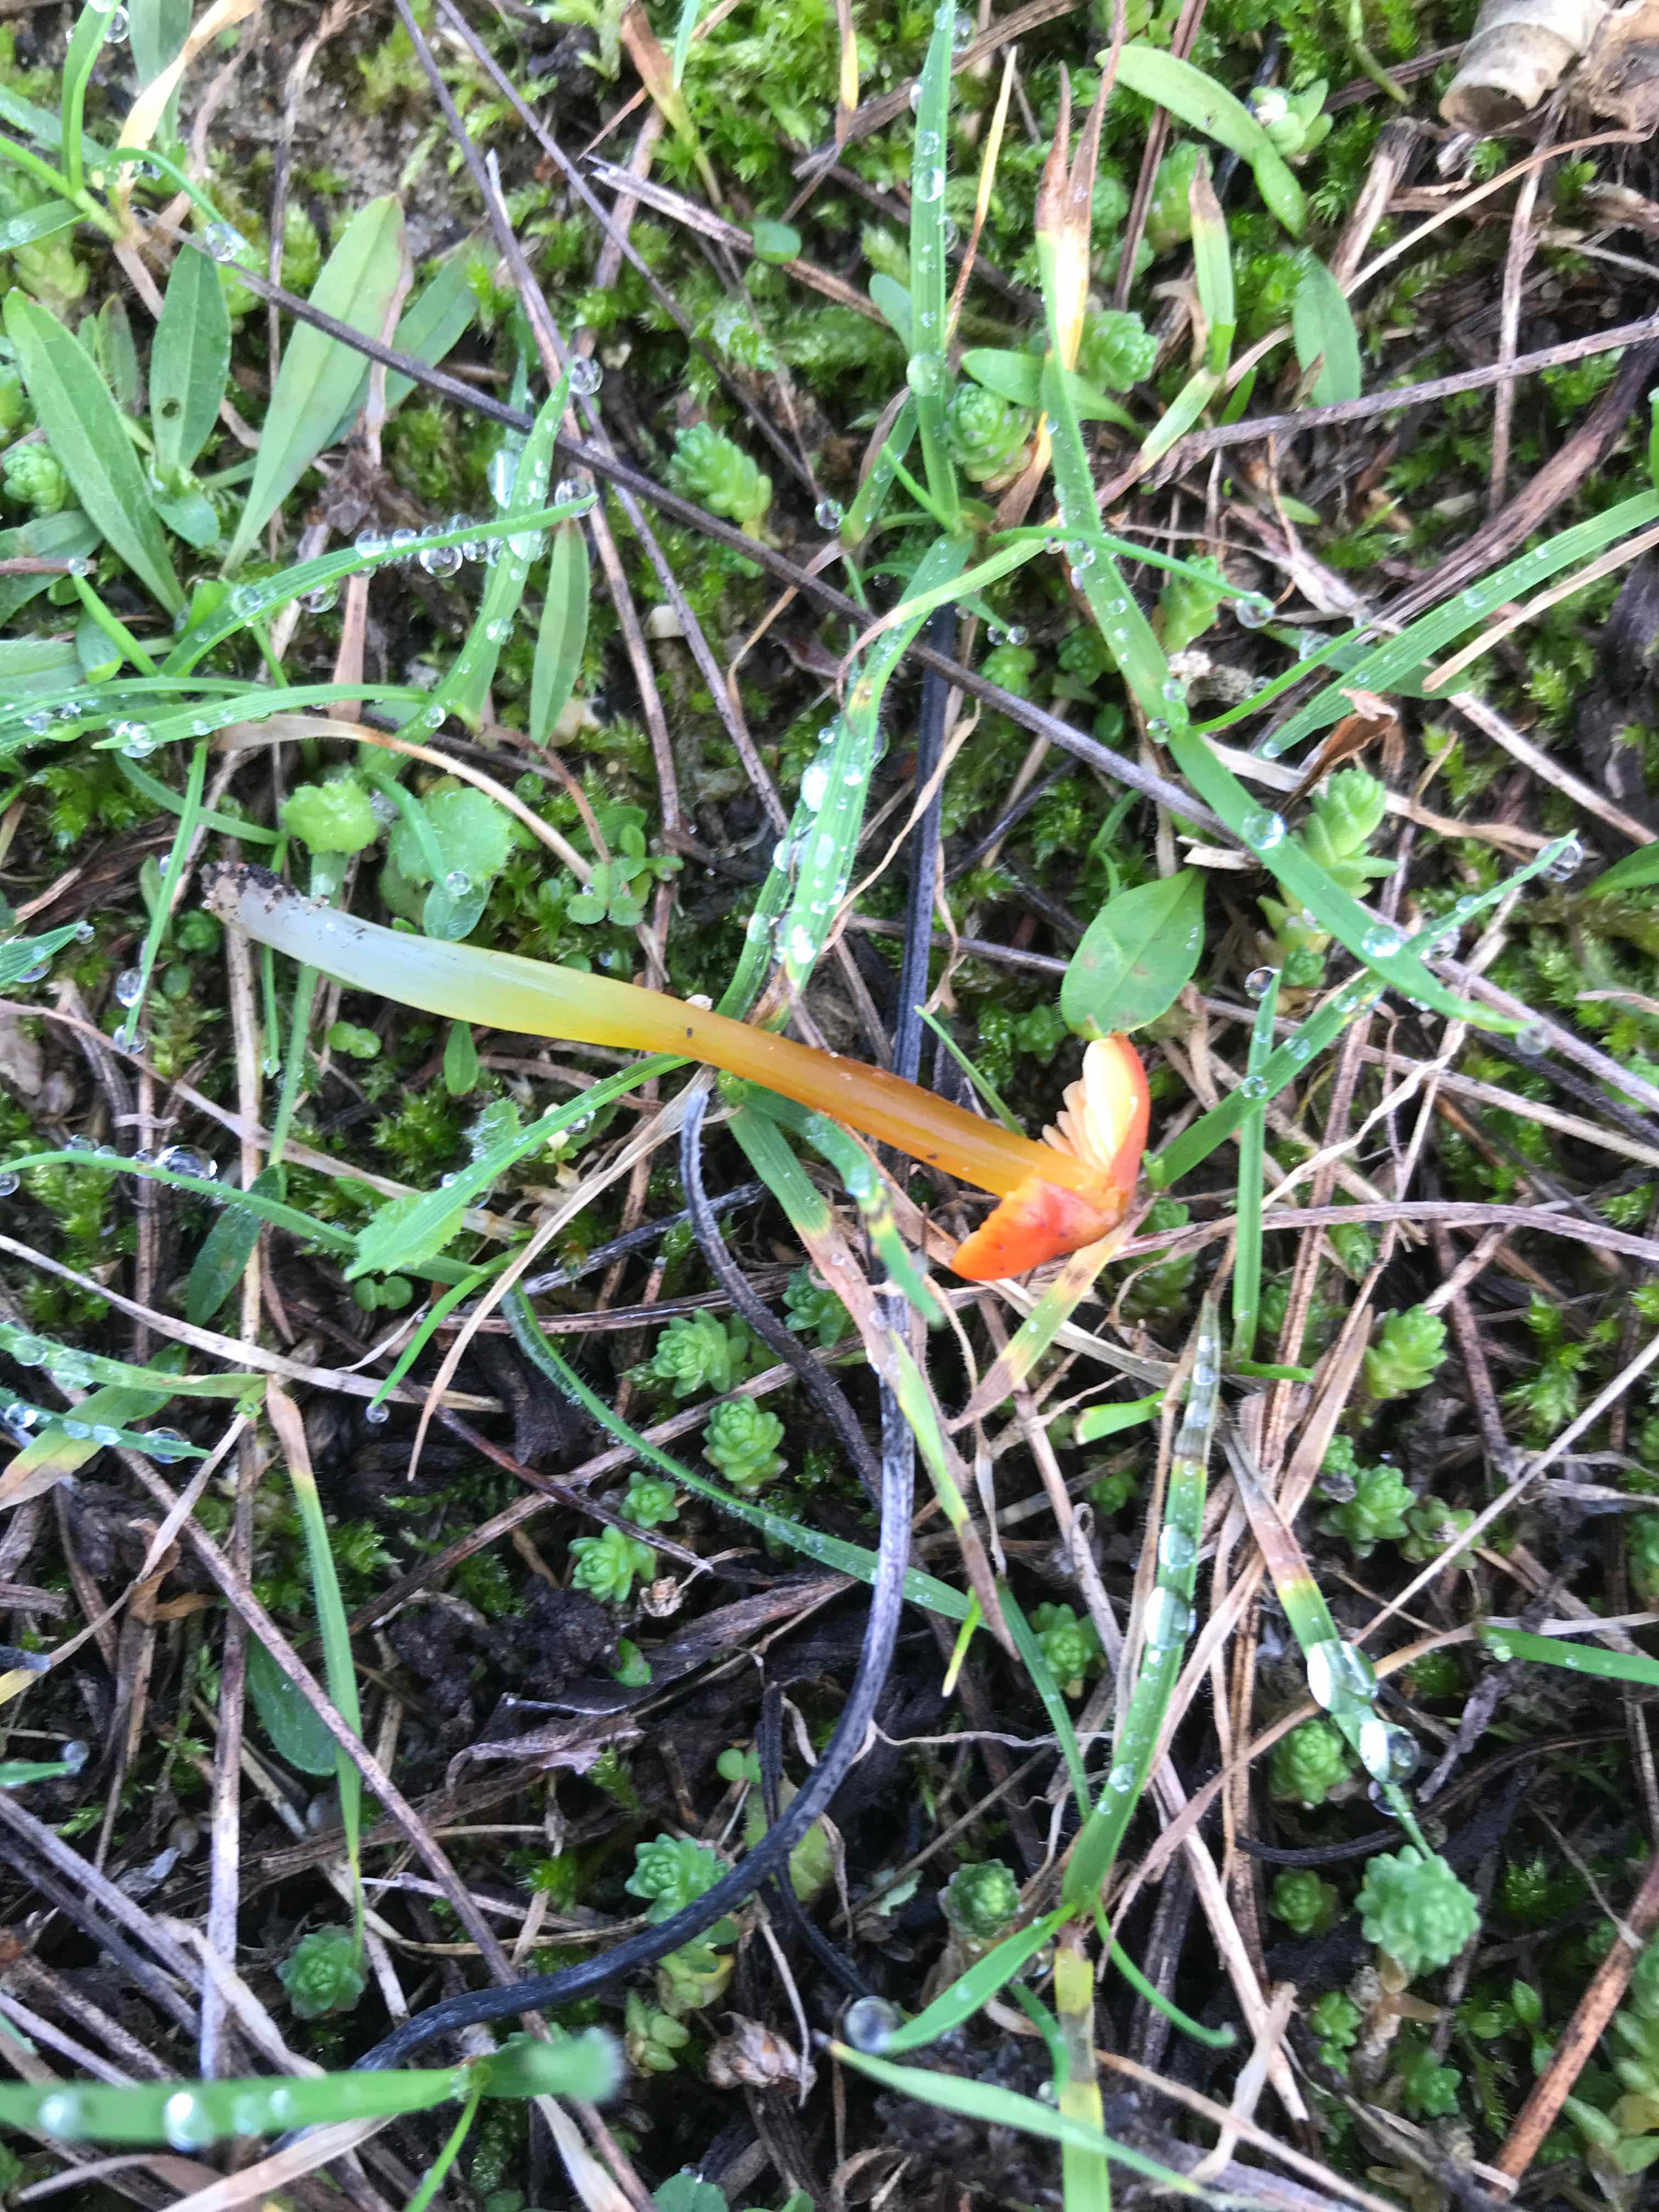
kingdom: Fungi
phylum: Basidiomycota
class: Agaricomycetes
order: Agaricales
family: Hygrophoraceae
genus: Hygrocybe
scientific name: Hygrocybe conica
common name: kegle-vokshat
